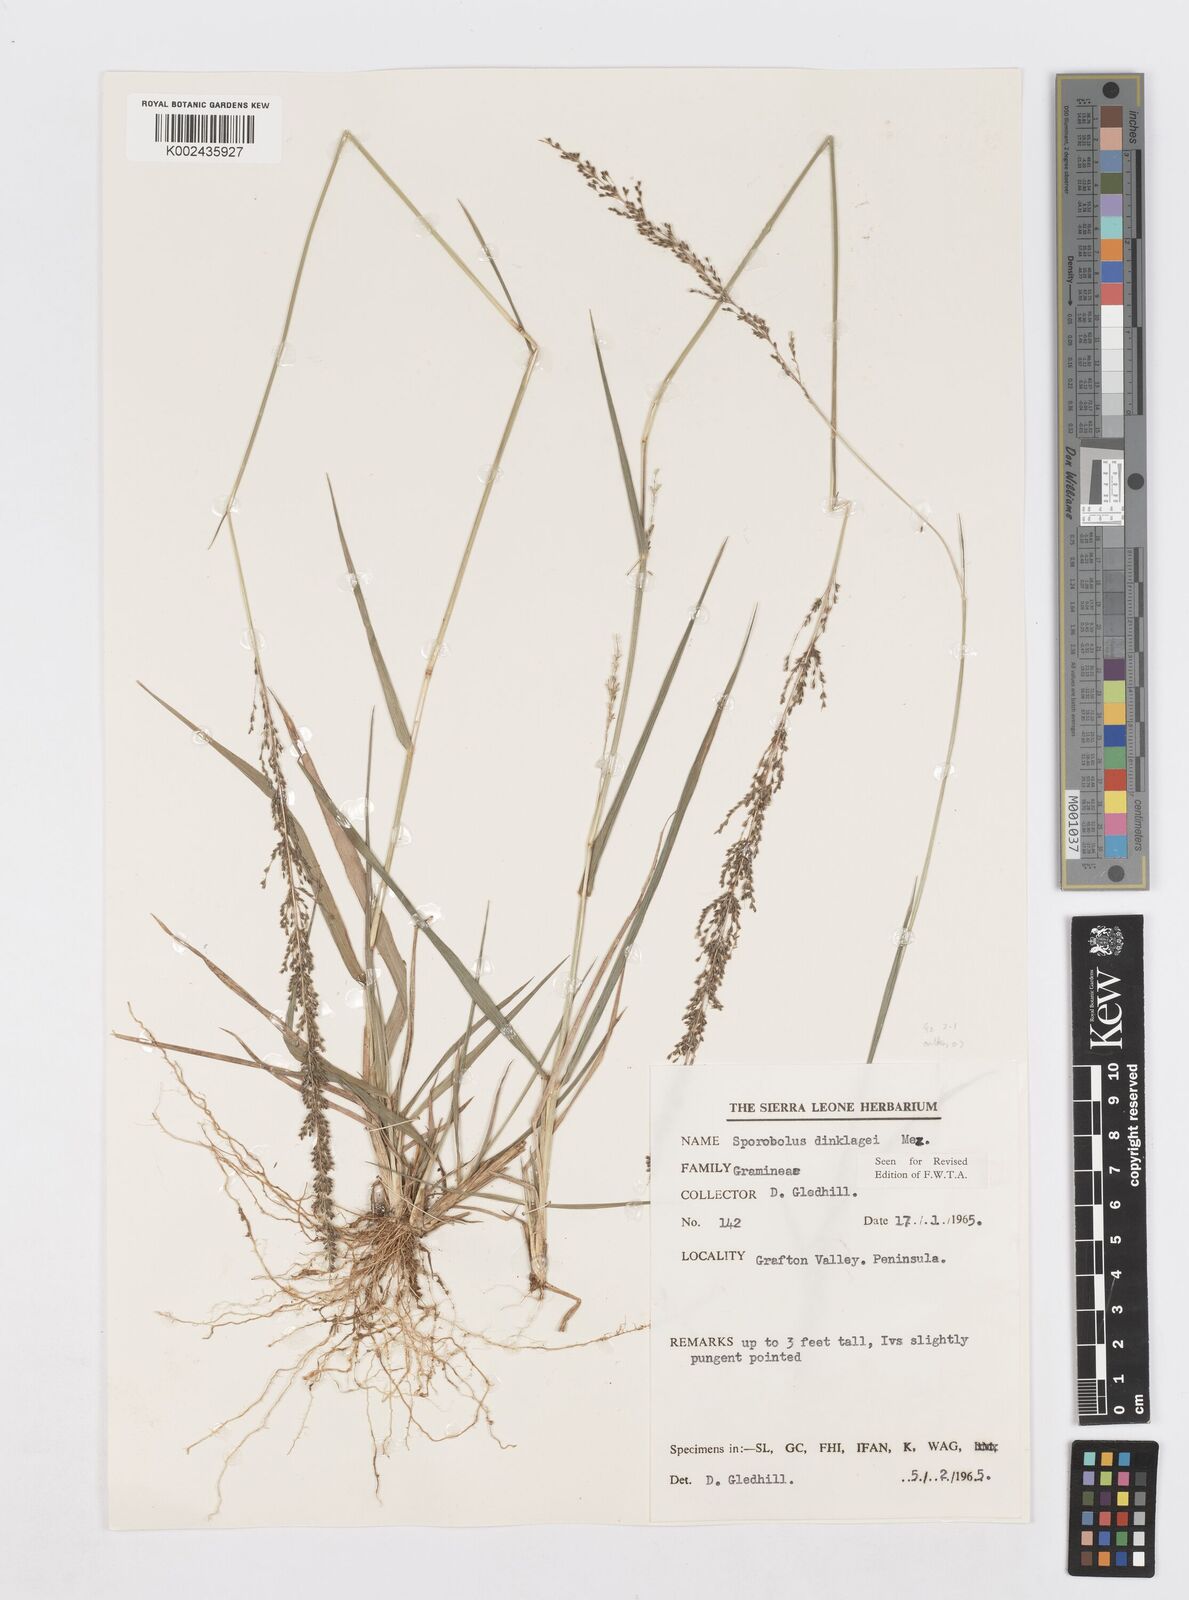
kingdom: Plantae
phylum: Tracheophyta
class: Liliopsida
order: Poales
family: Poaceae
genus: Sporobolus
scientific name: Sporobolus dinklagei
